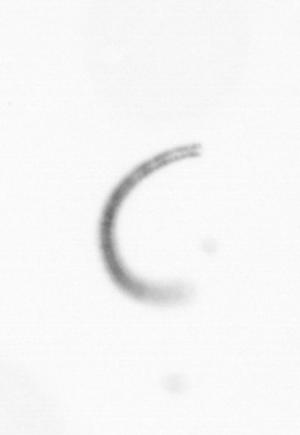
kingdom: Chromista
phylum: Ochrophyta
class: Bacillariophyceae
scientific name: Bacillariophyceae
